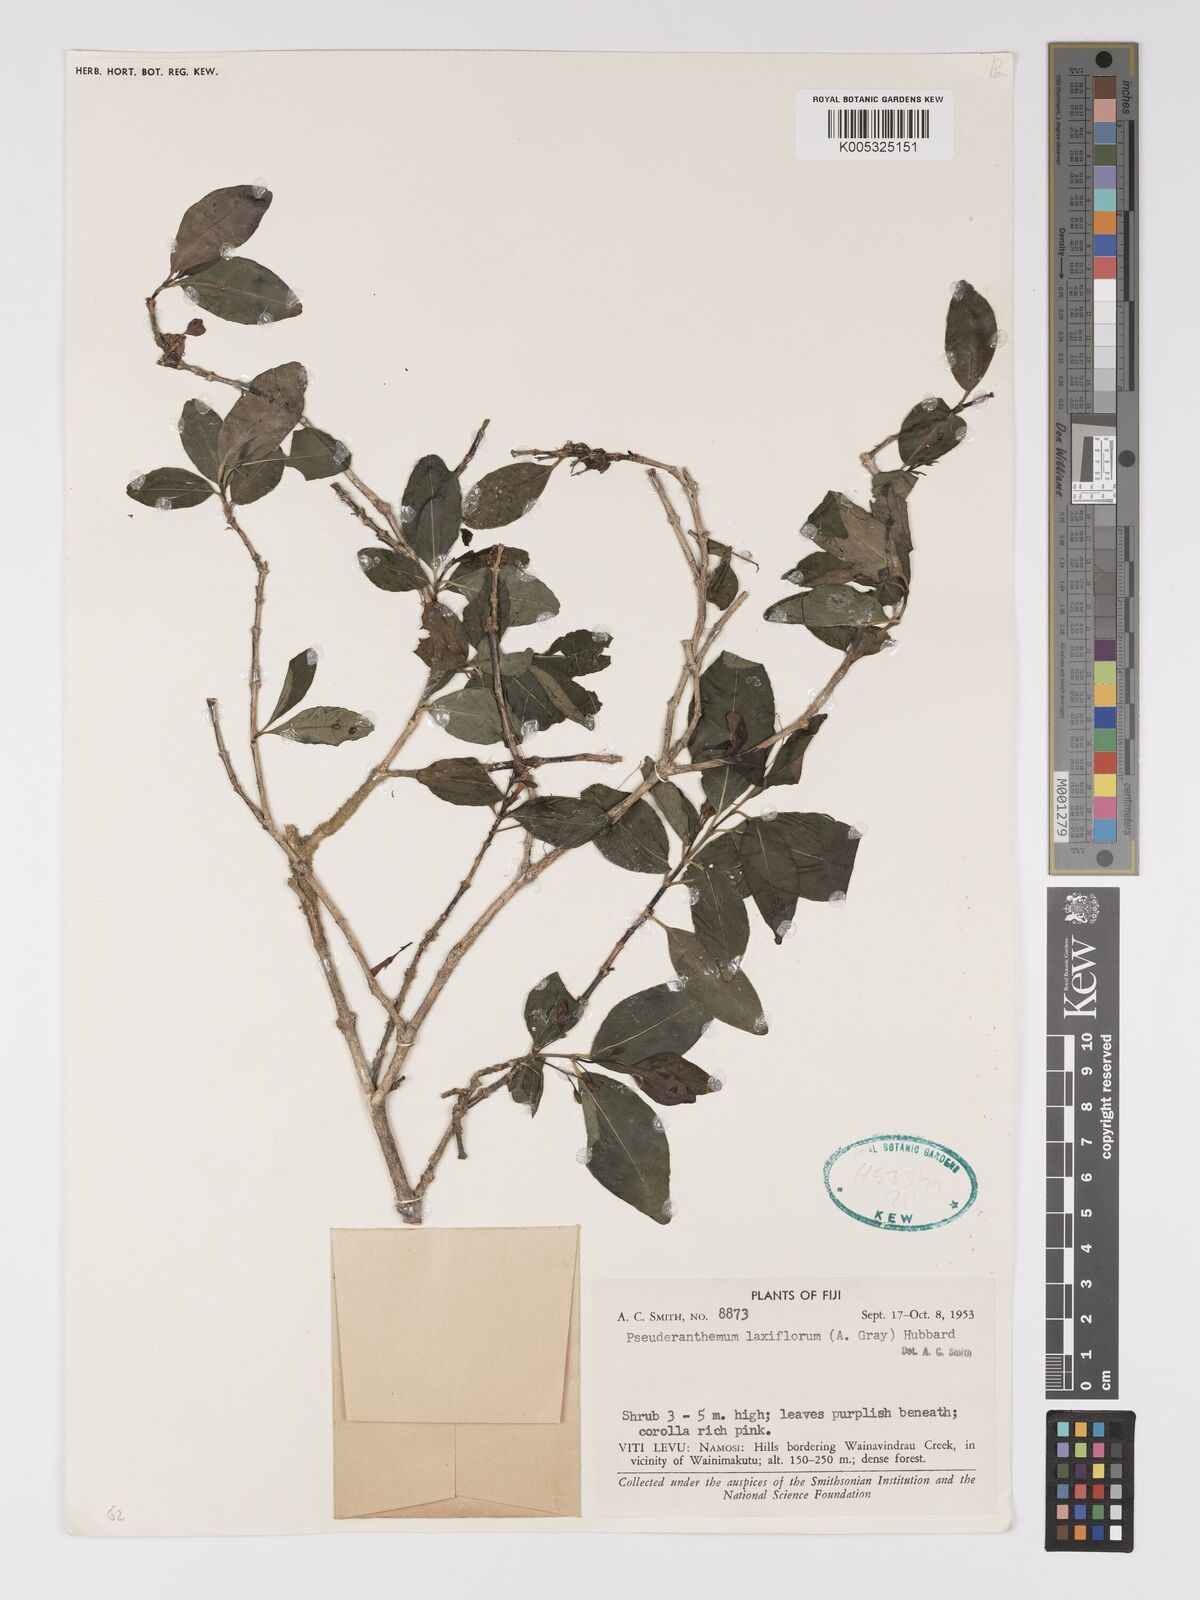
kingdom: Plantae
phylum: Tracheophyta
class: Magnoliopsida
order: Lamiales
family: Acanthaceae
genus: Pseuderanthemum
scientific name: Pseuderanthemum laxiflorum
